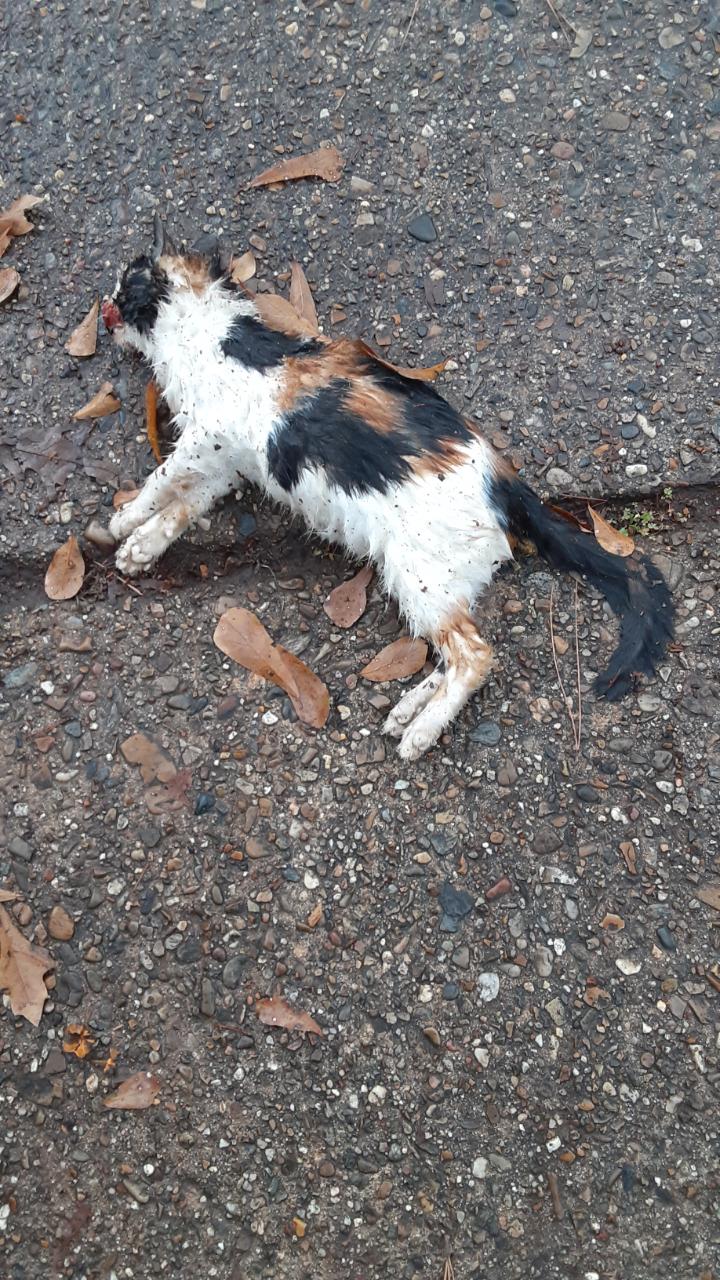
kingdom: Animalia
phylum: Chordata
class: Mammalia
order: Carnivora
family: Felidae
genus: Felis
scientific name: Felis catus
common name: Domestic cat
